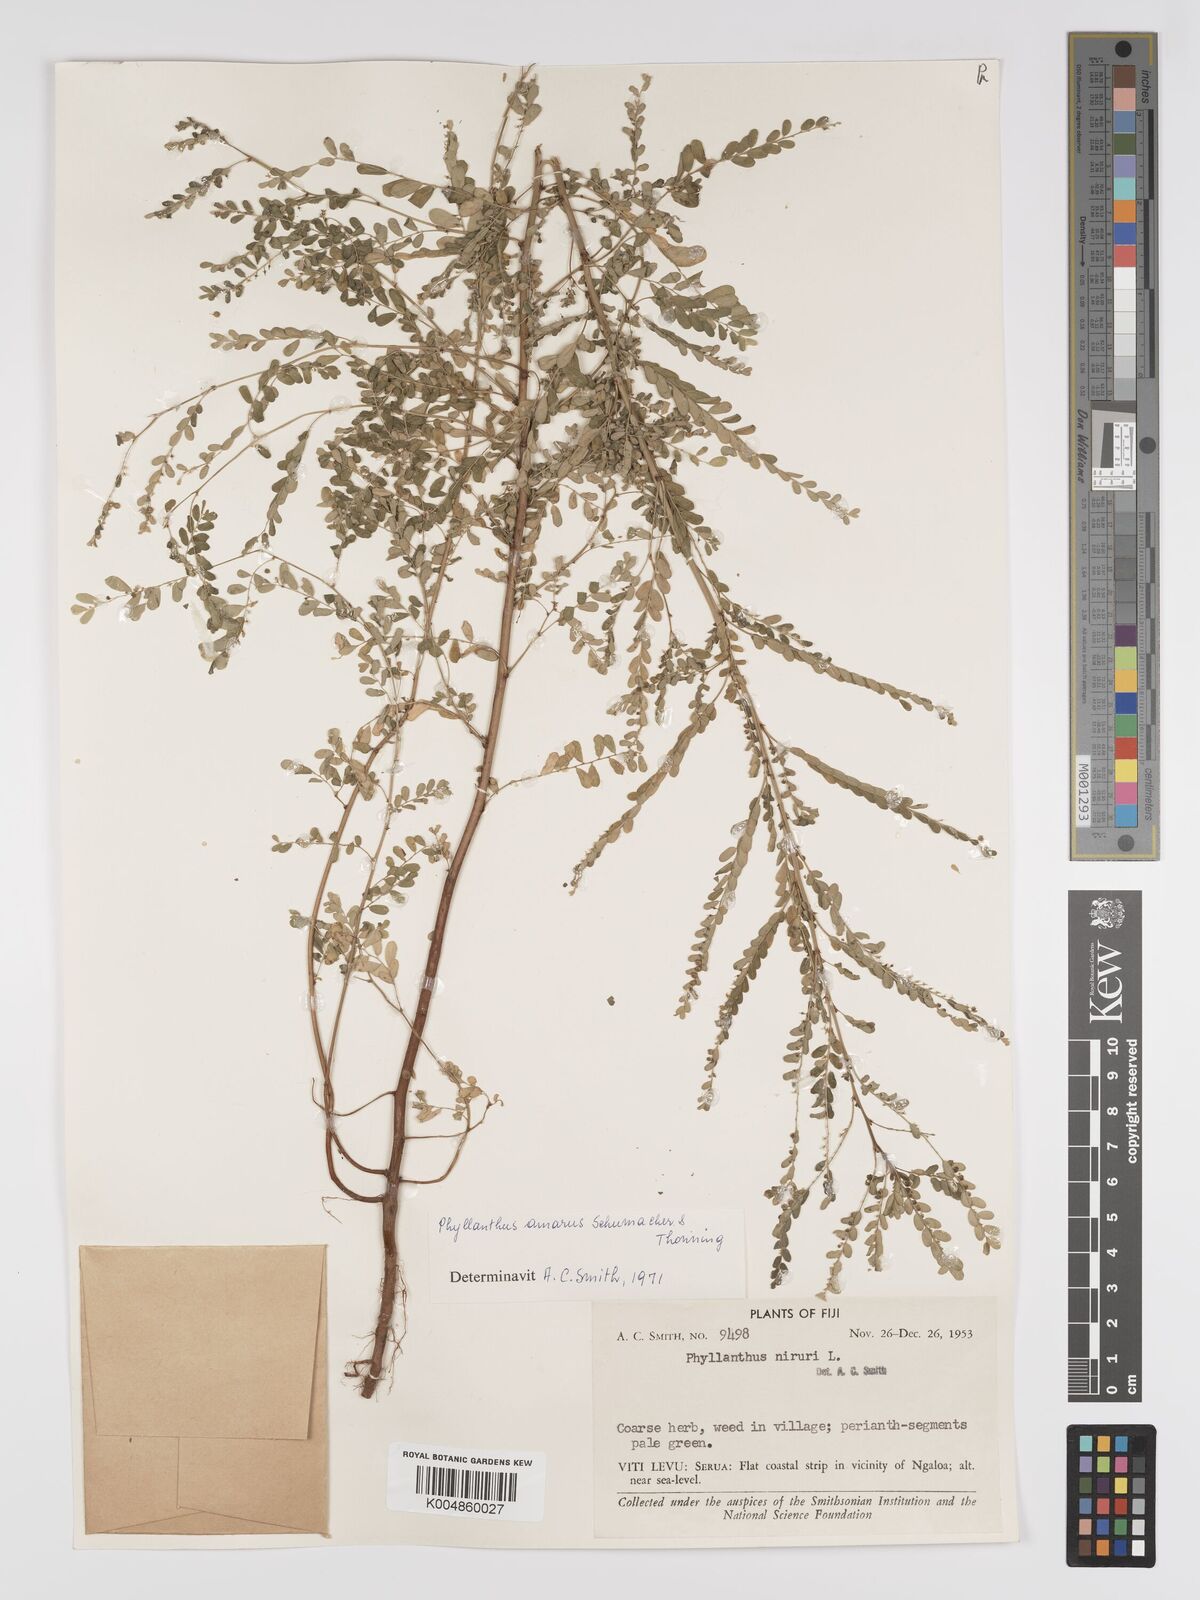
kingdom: Plantae
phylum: Tracheophyta
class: Magnoliopsida
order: Malpighiales
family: Phyllanthaceae
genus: Phyllanthus
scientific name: Phyllanthus amarus
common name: Carry me seed
